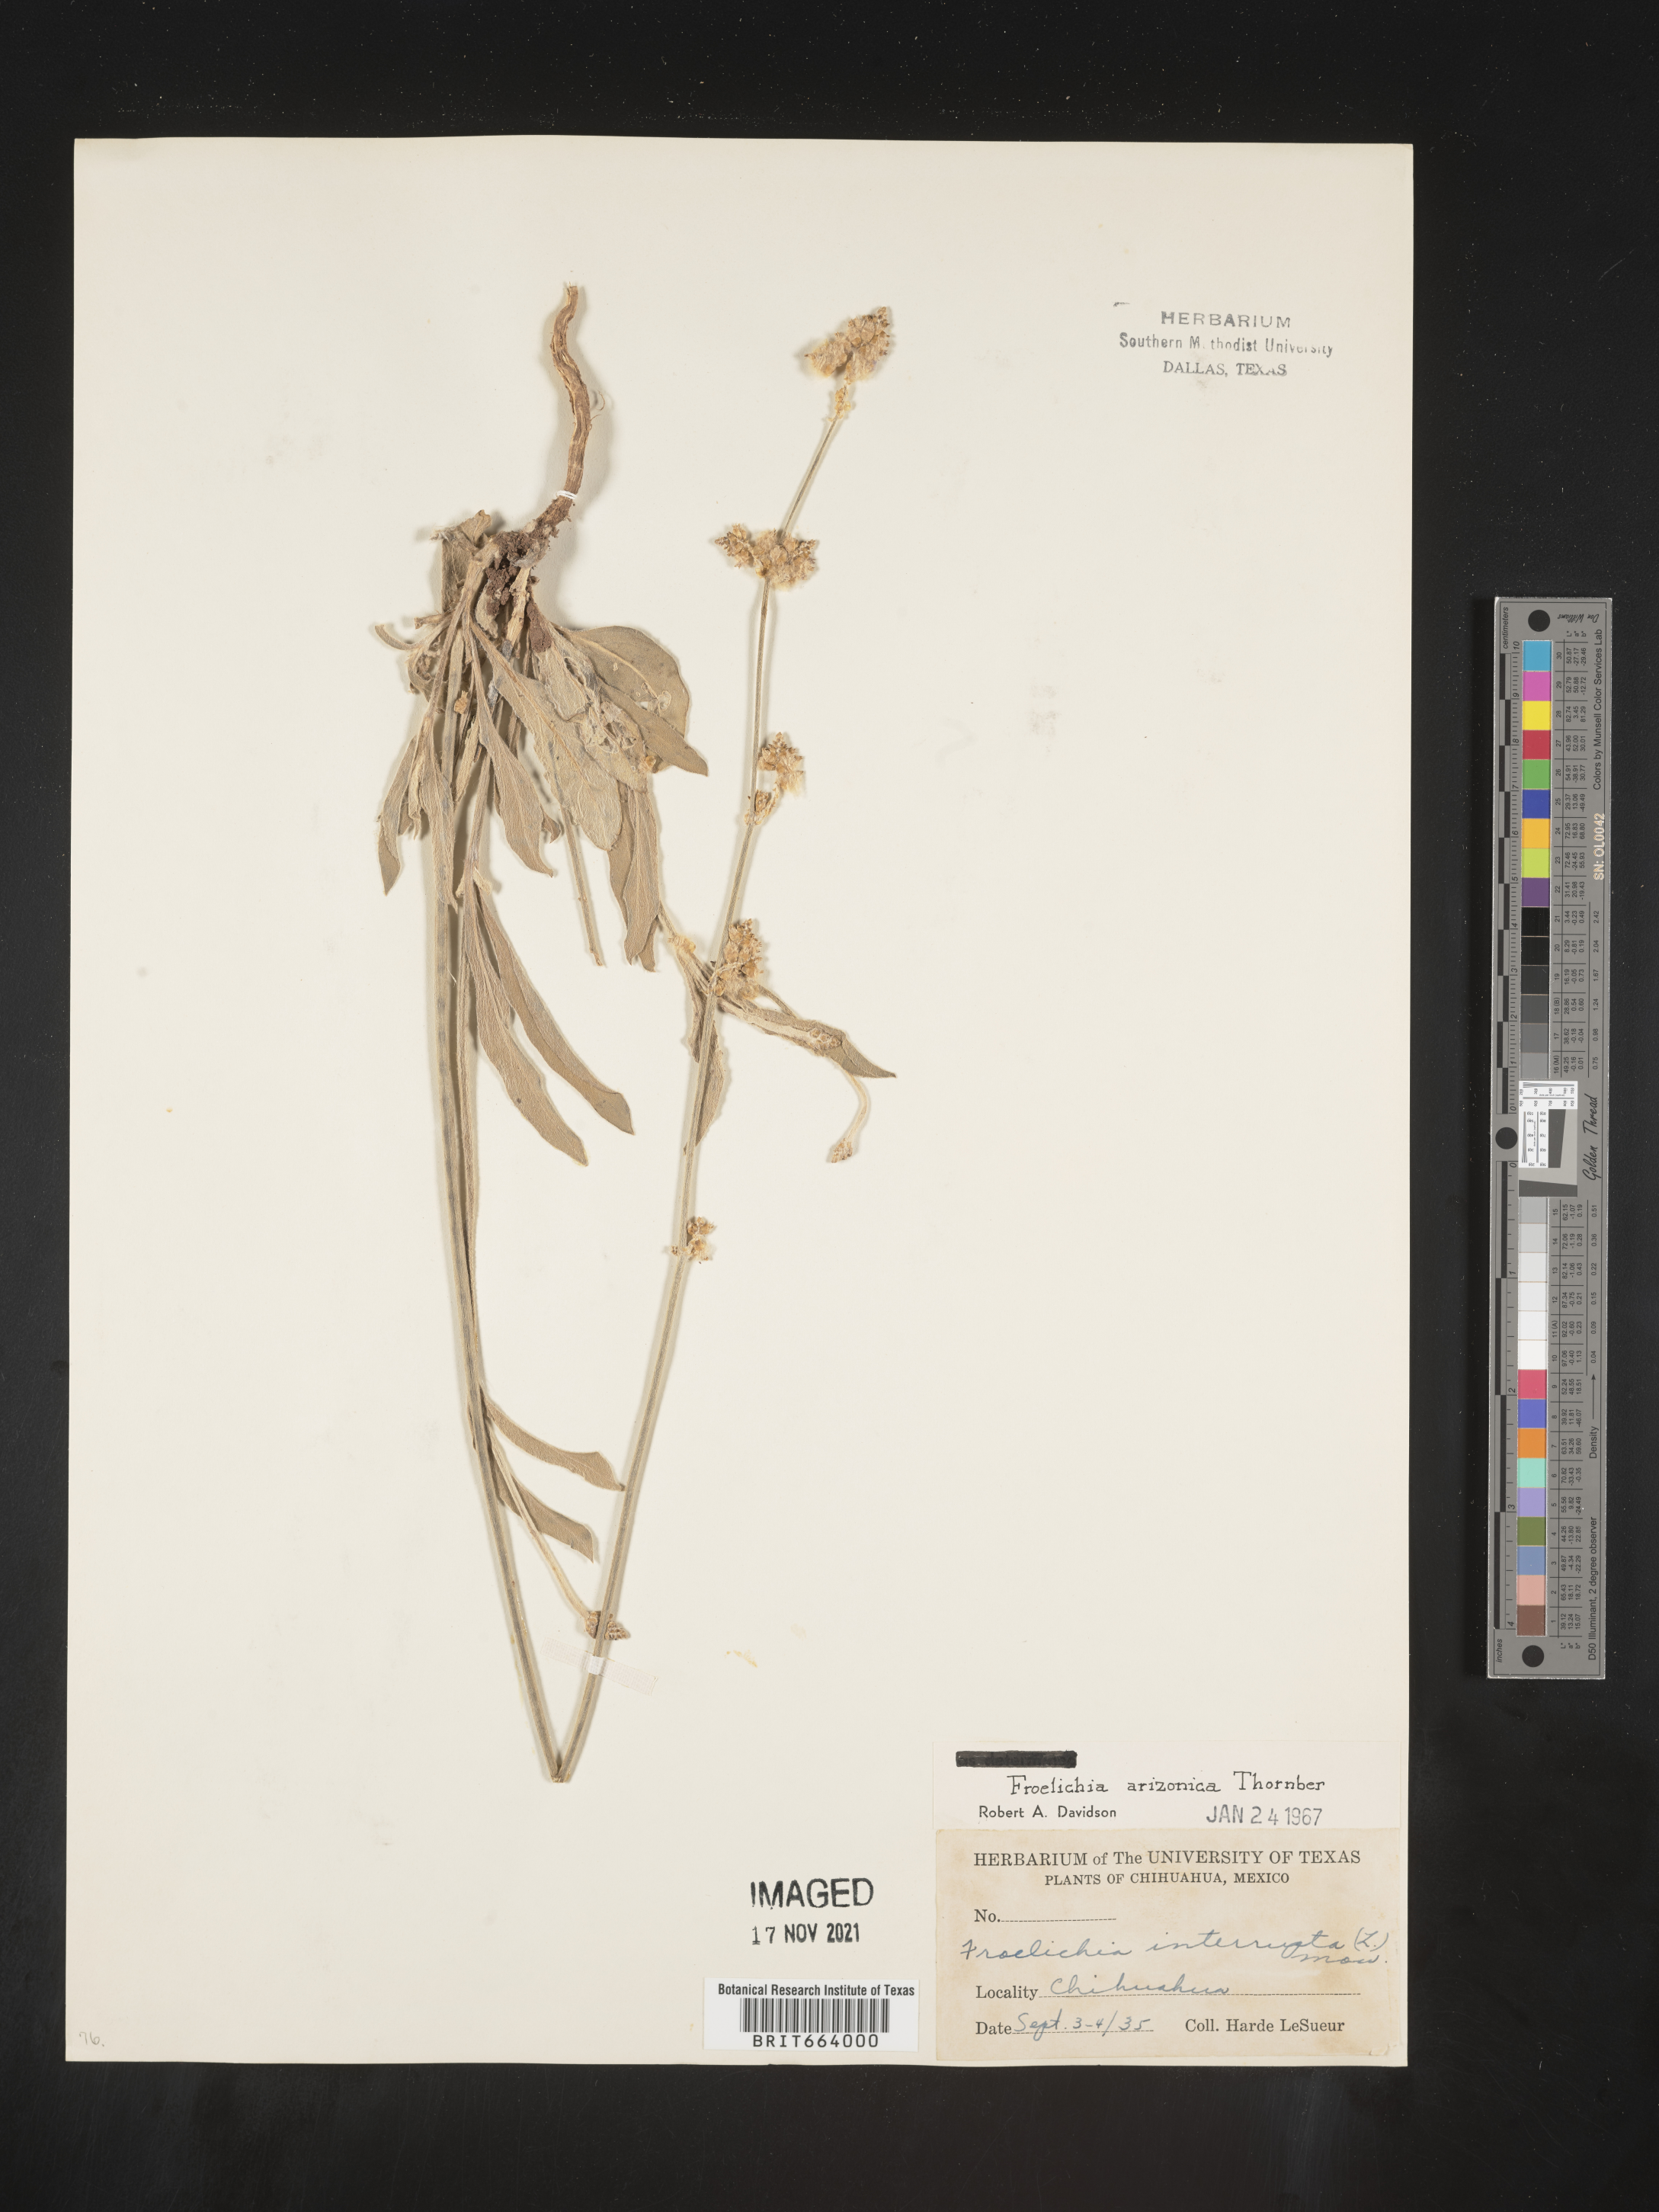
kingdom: Plantae
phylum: Tracheophyta
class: Magnoliopsida
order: Caryophyllales
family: Amaranthaceae
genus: Froelichia
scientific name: Froelichia
